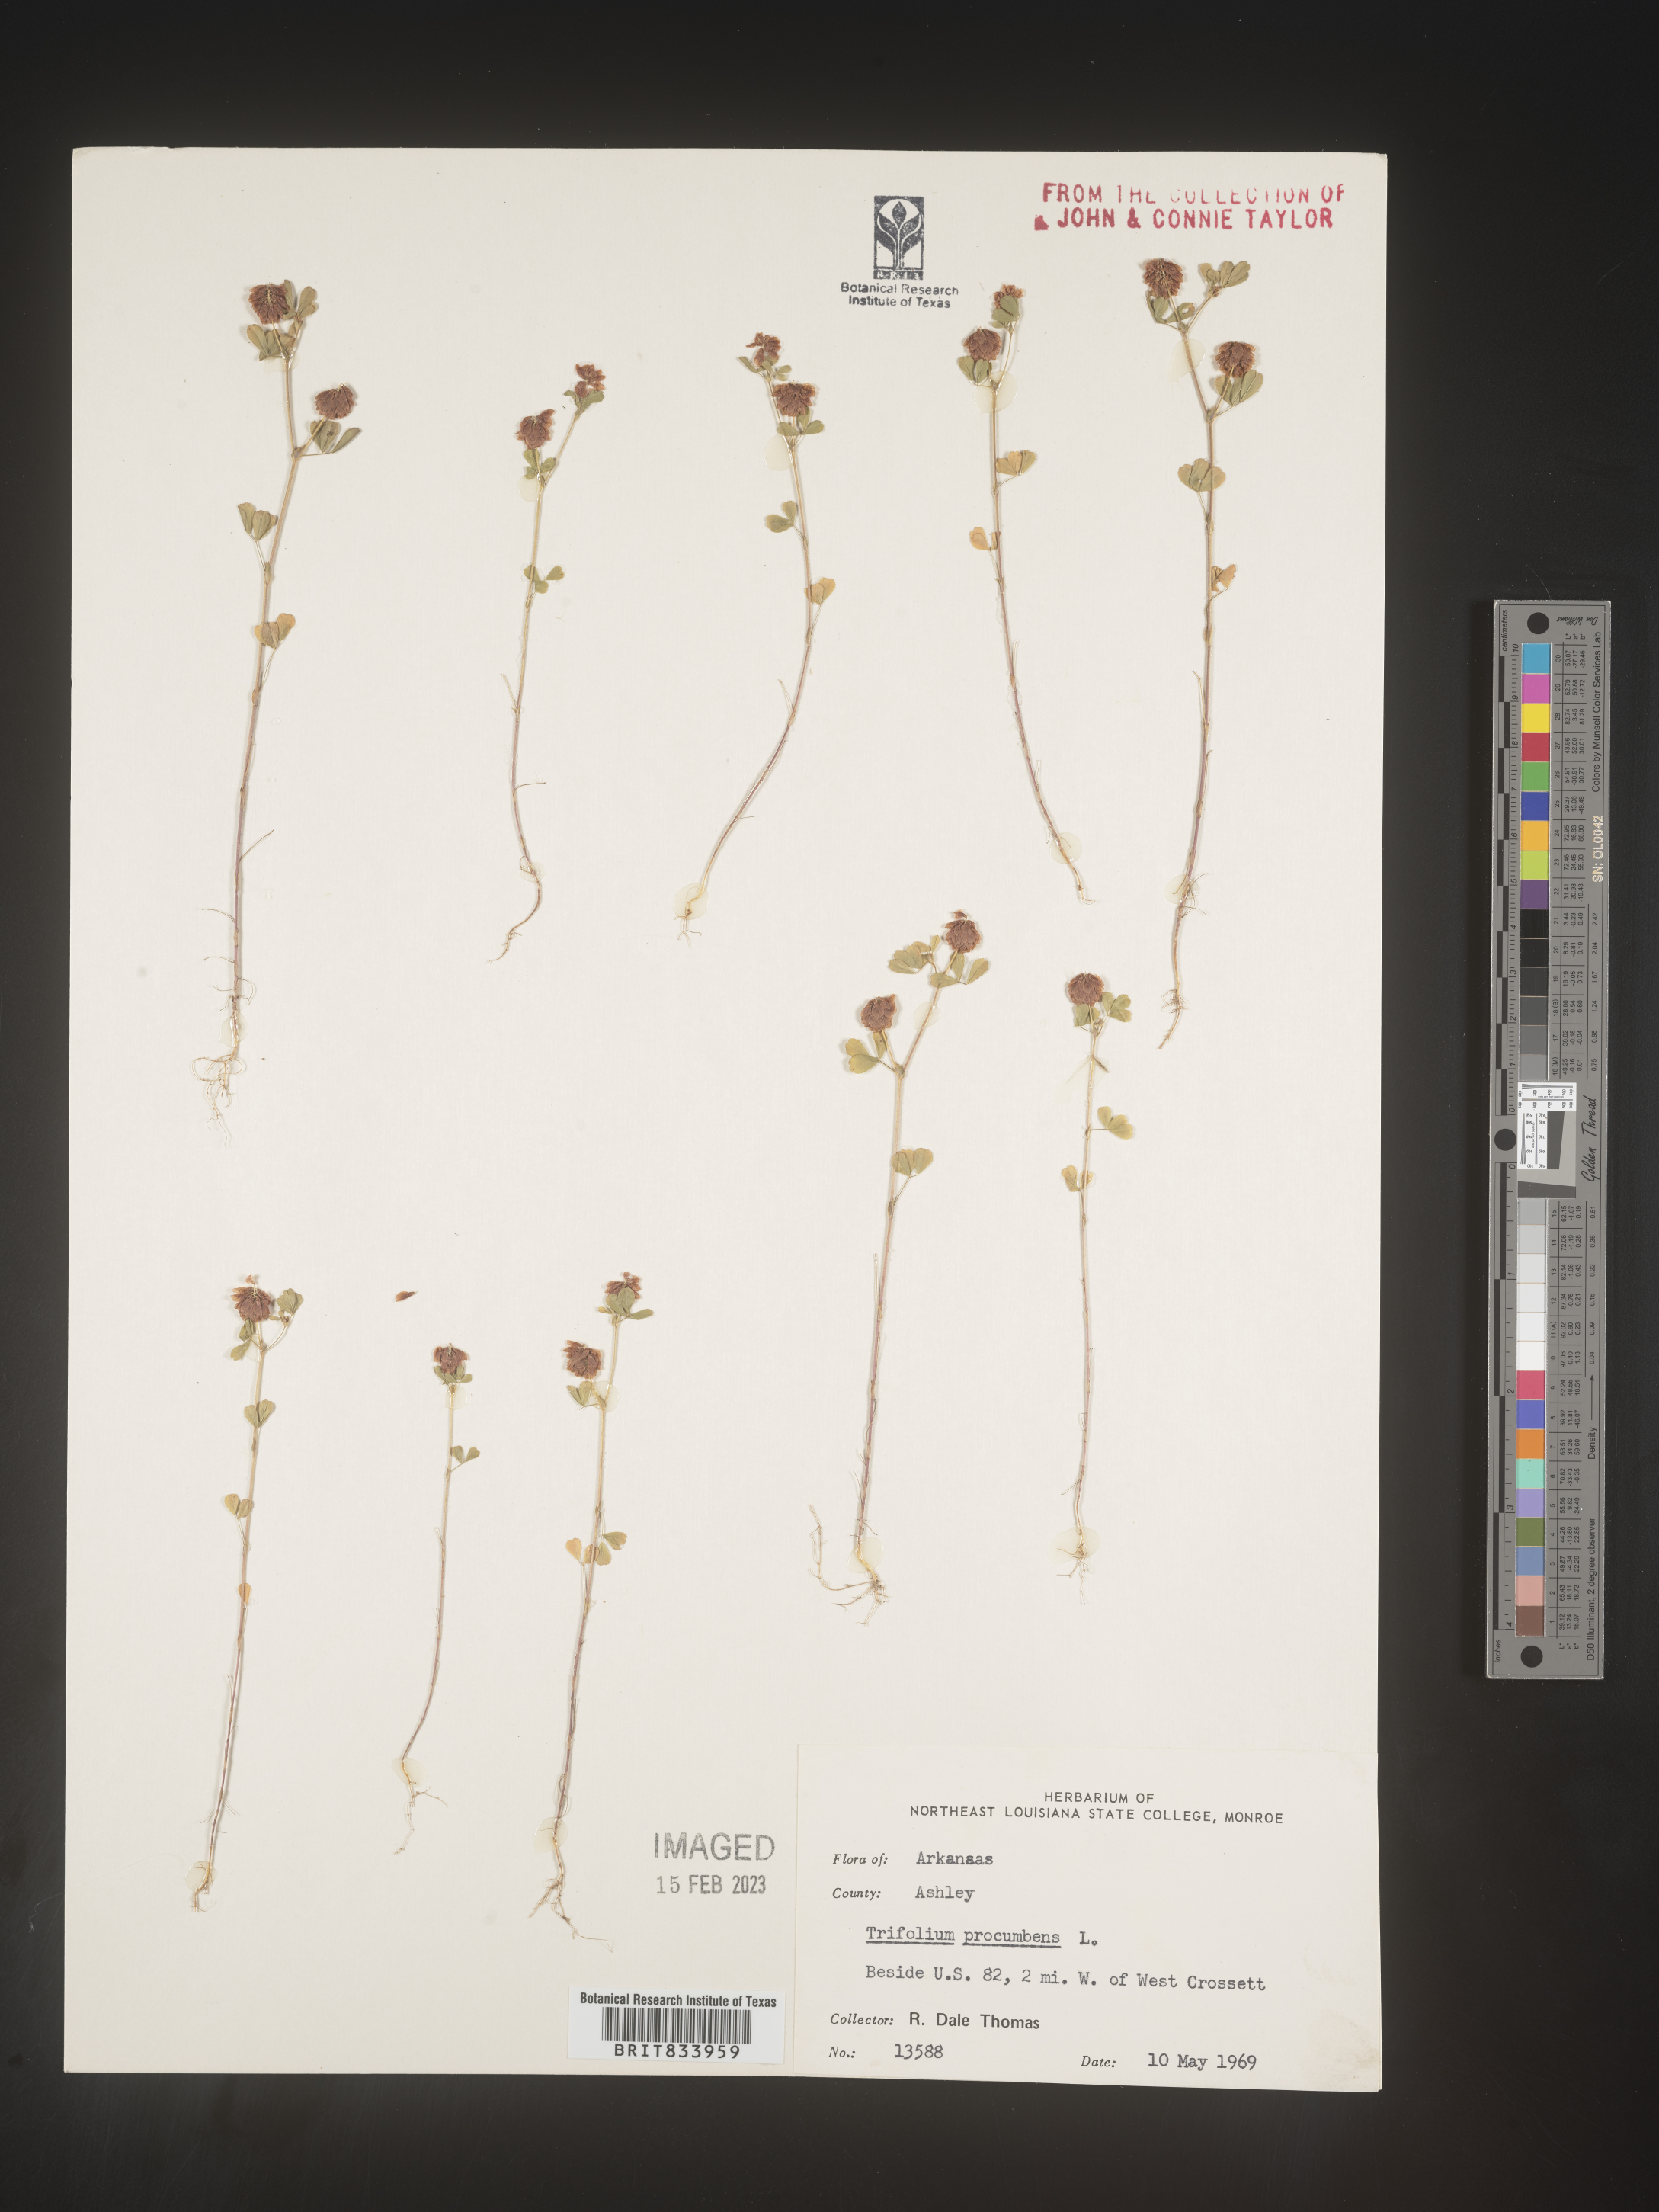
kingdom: Plantae
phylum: Tracheophyta
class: Magnoliopsida
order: Fabales
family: Fabaceae
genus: Trifolium
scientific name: Trifolium campestre
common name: Field clover
